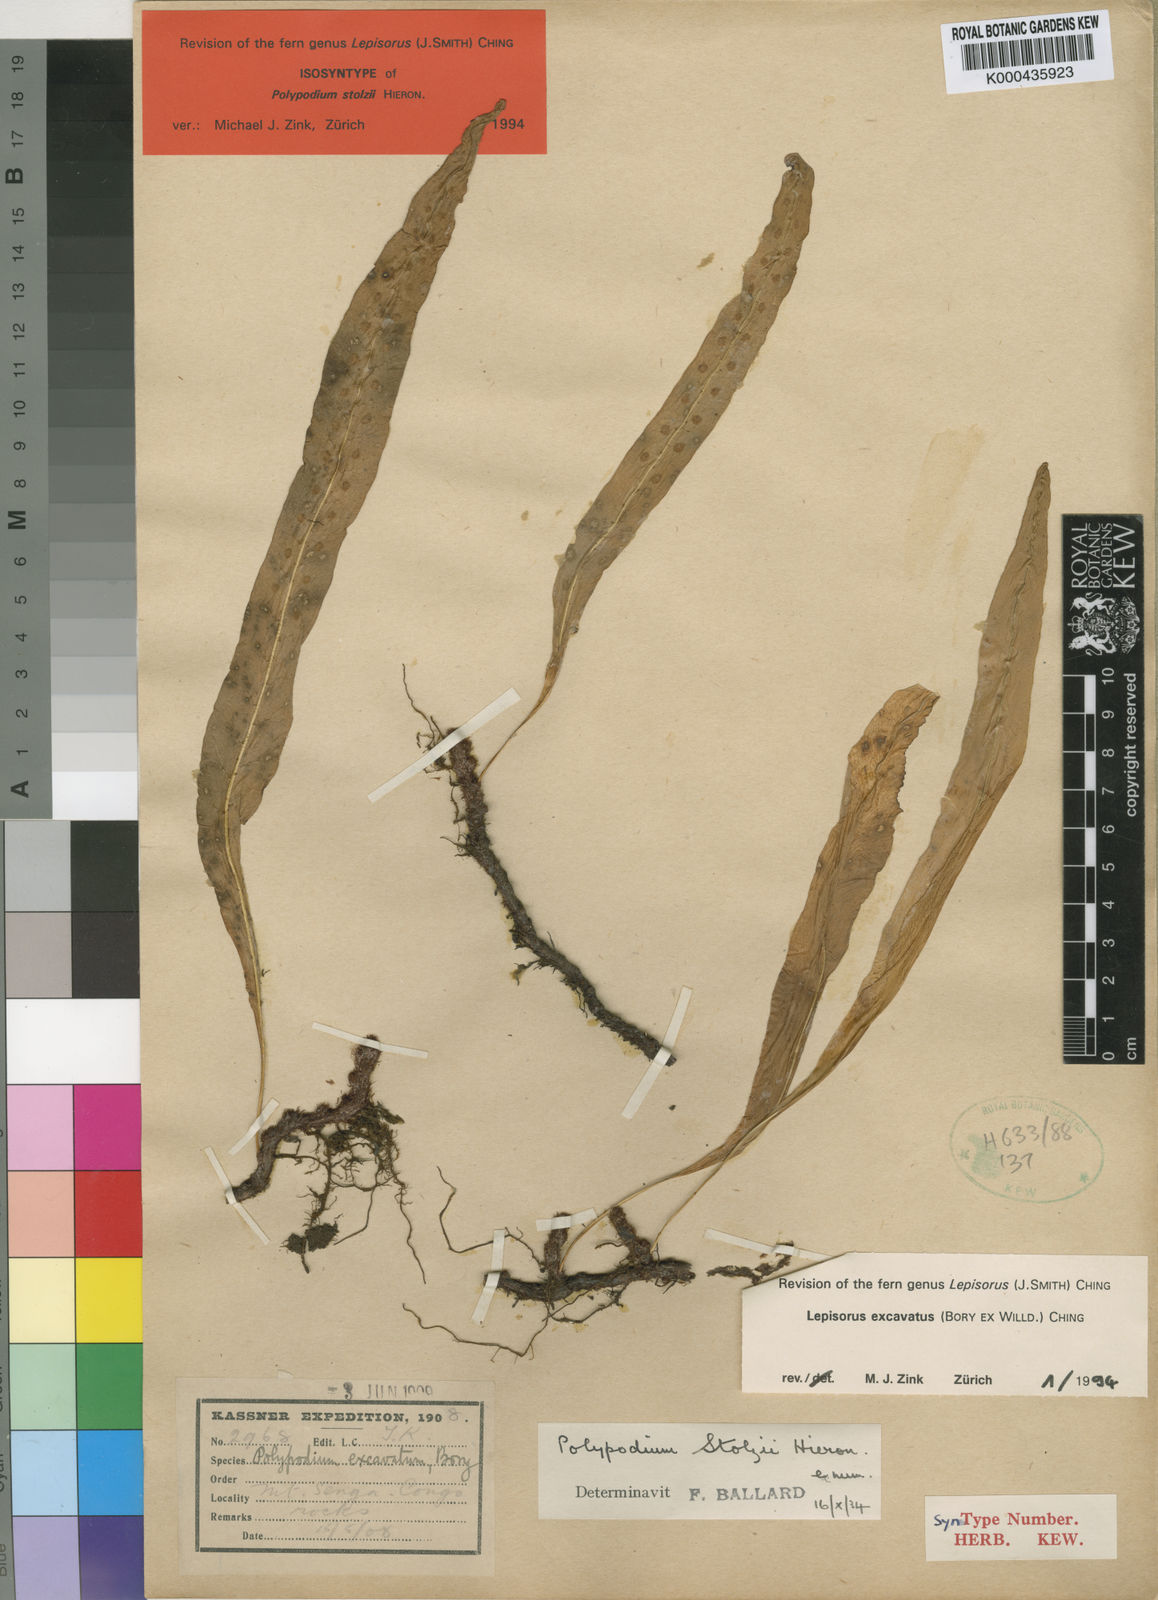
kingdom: Plantae
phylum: Tracheophyta
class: Polypodiopsida
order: Polypodiales
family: Polypodiaceae
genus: Lepisorus
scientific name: Lepisorus excavatus
